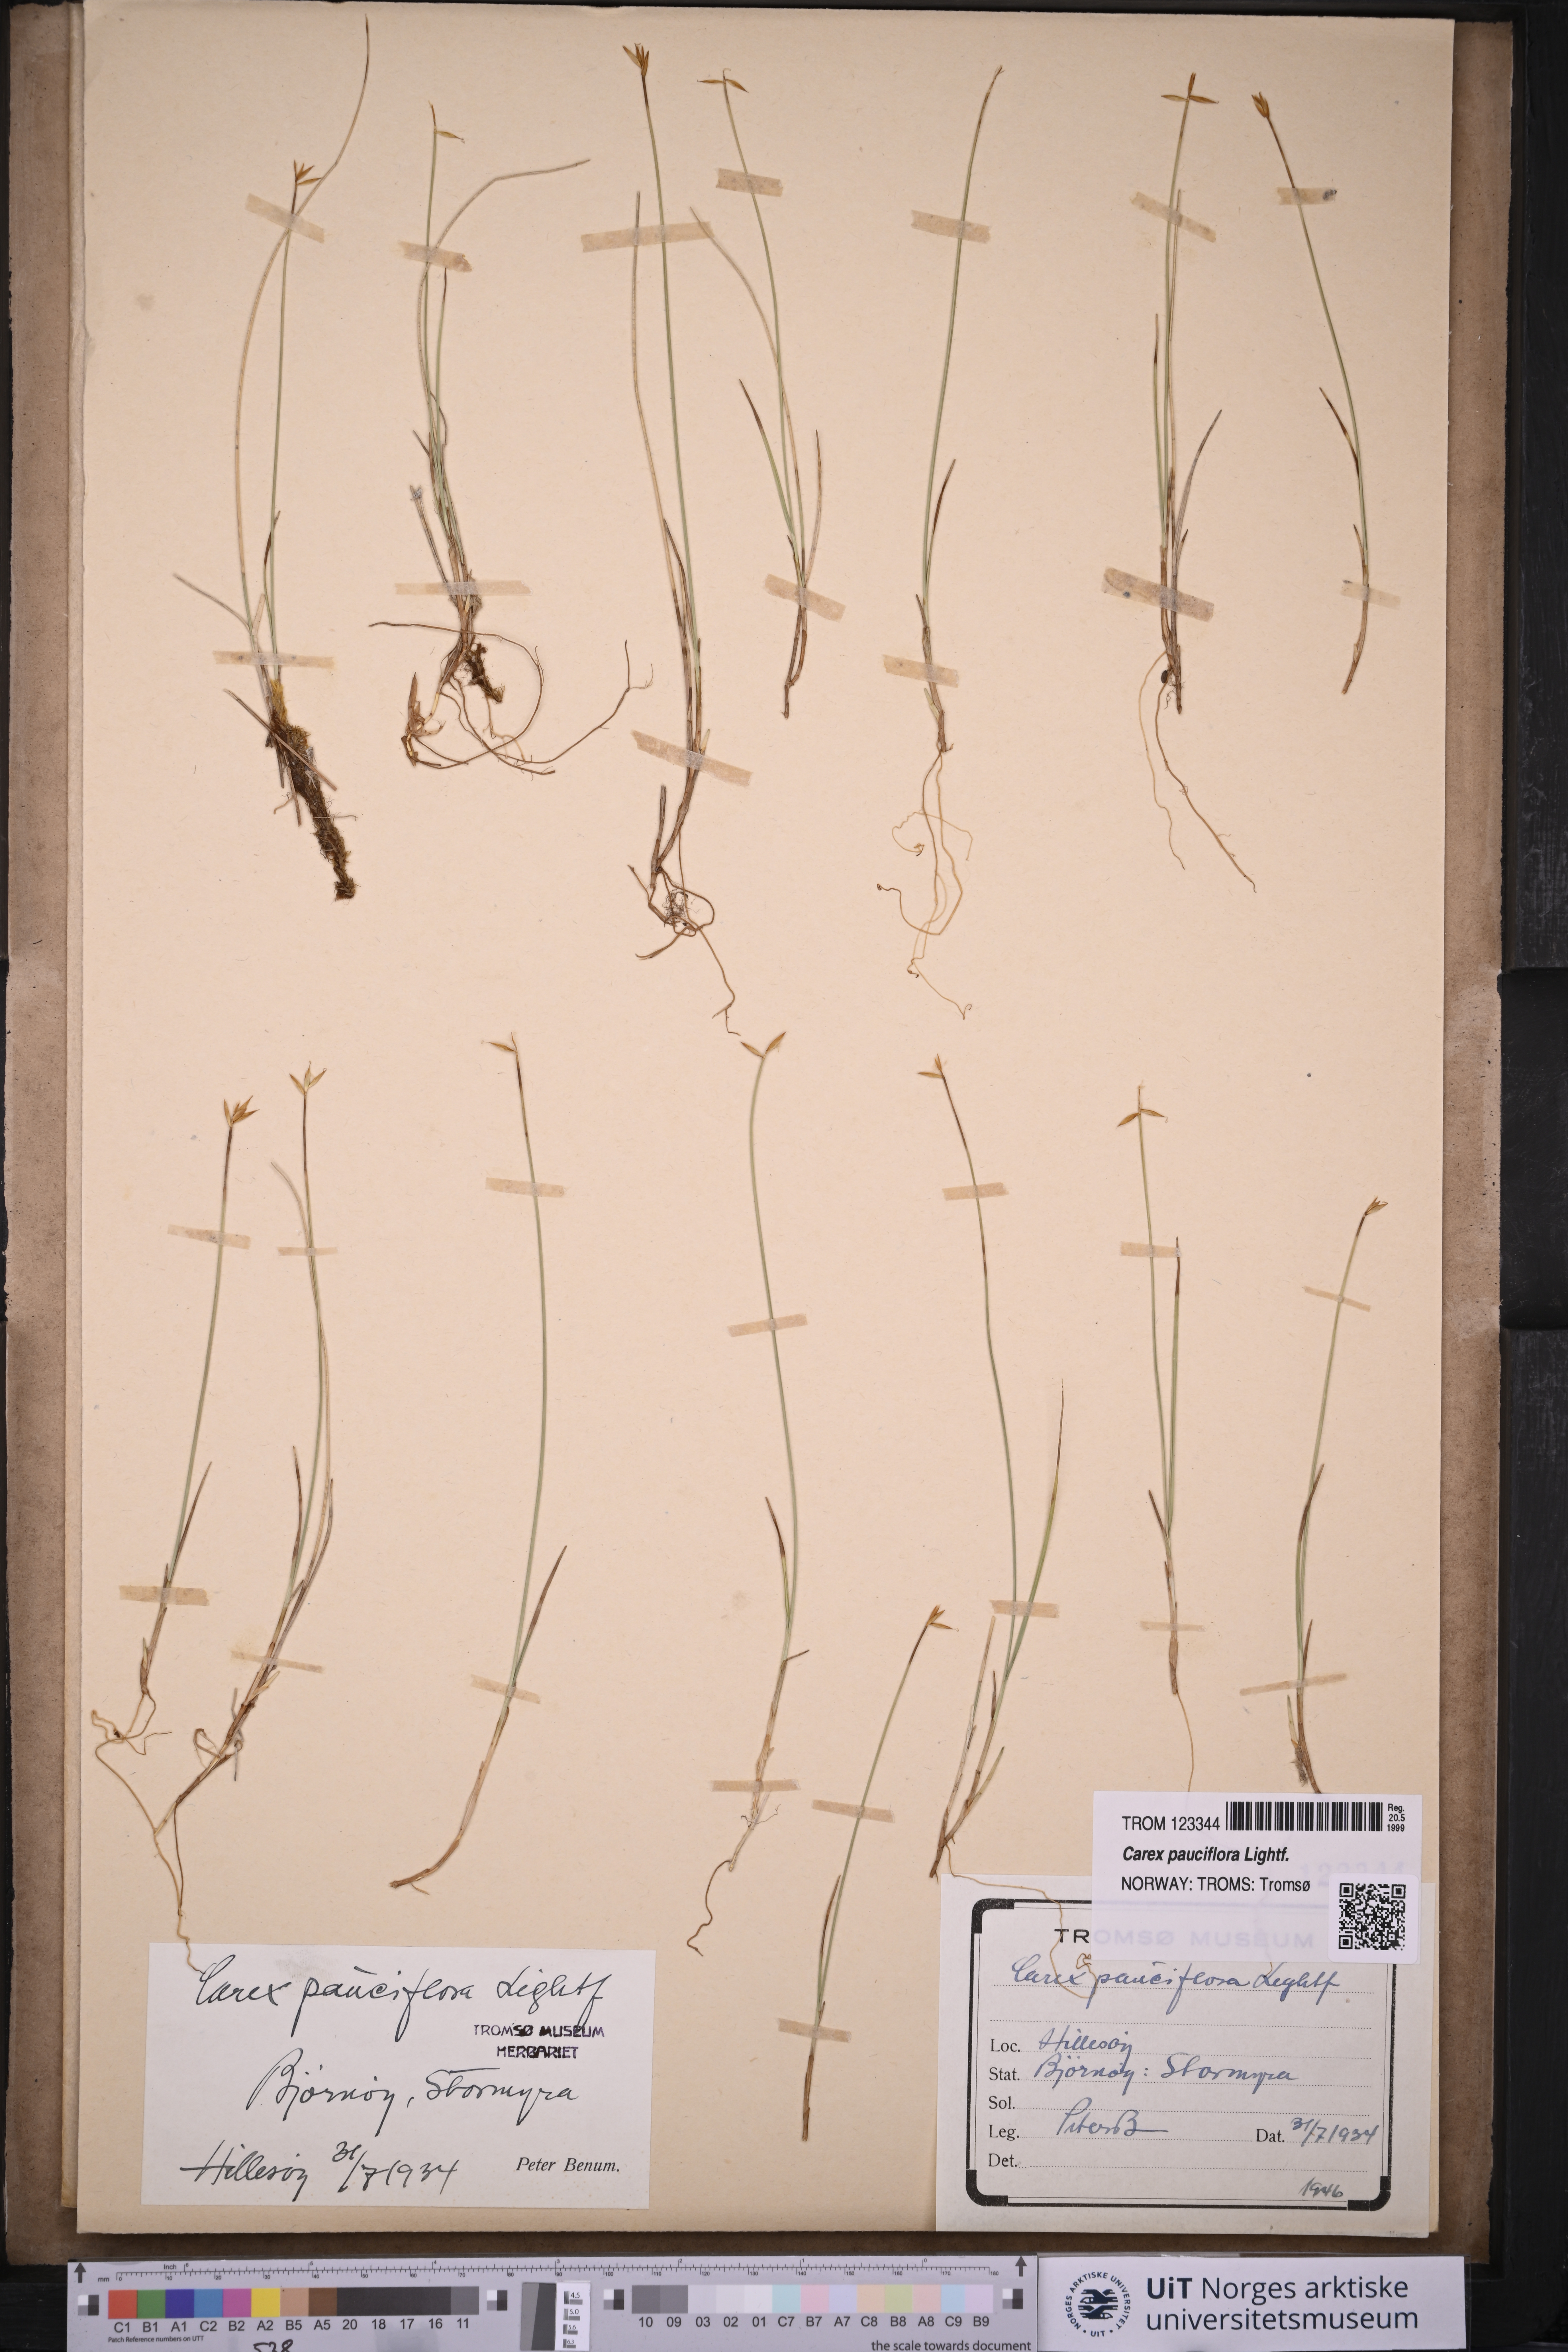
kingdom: Plantae
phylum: Tracheophyta
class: Liliopsida
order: Poales
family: Cyperaceae
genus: Carex
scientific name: Carex pauciflora
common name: Few-flowered sedge
